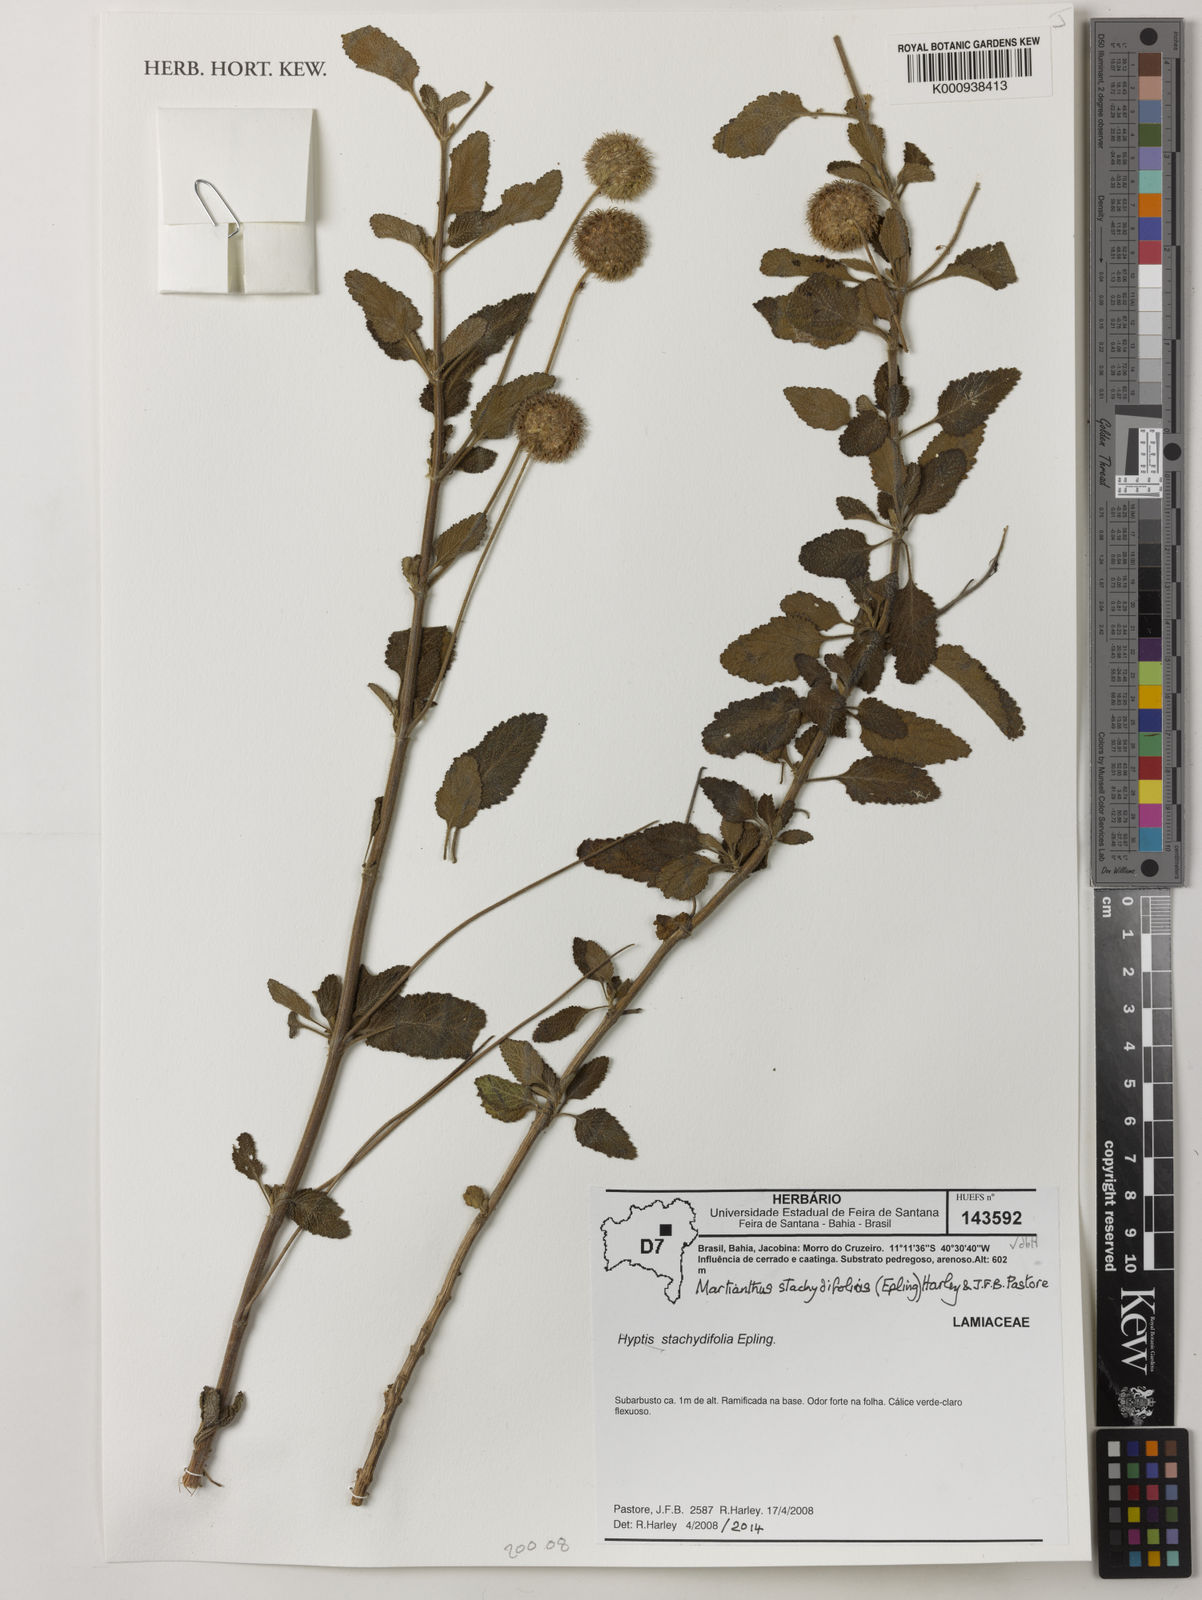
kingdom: Plantae
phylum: Tracheophyta
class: Magnoliopsida
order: Lamiales
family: Lamiaceae
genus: Martianthus
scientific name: Martianthus stachydifolius
